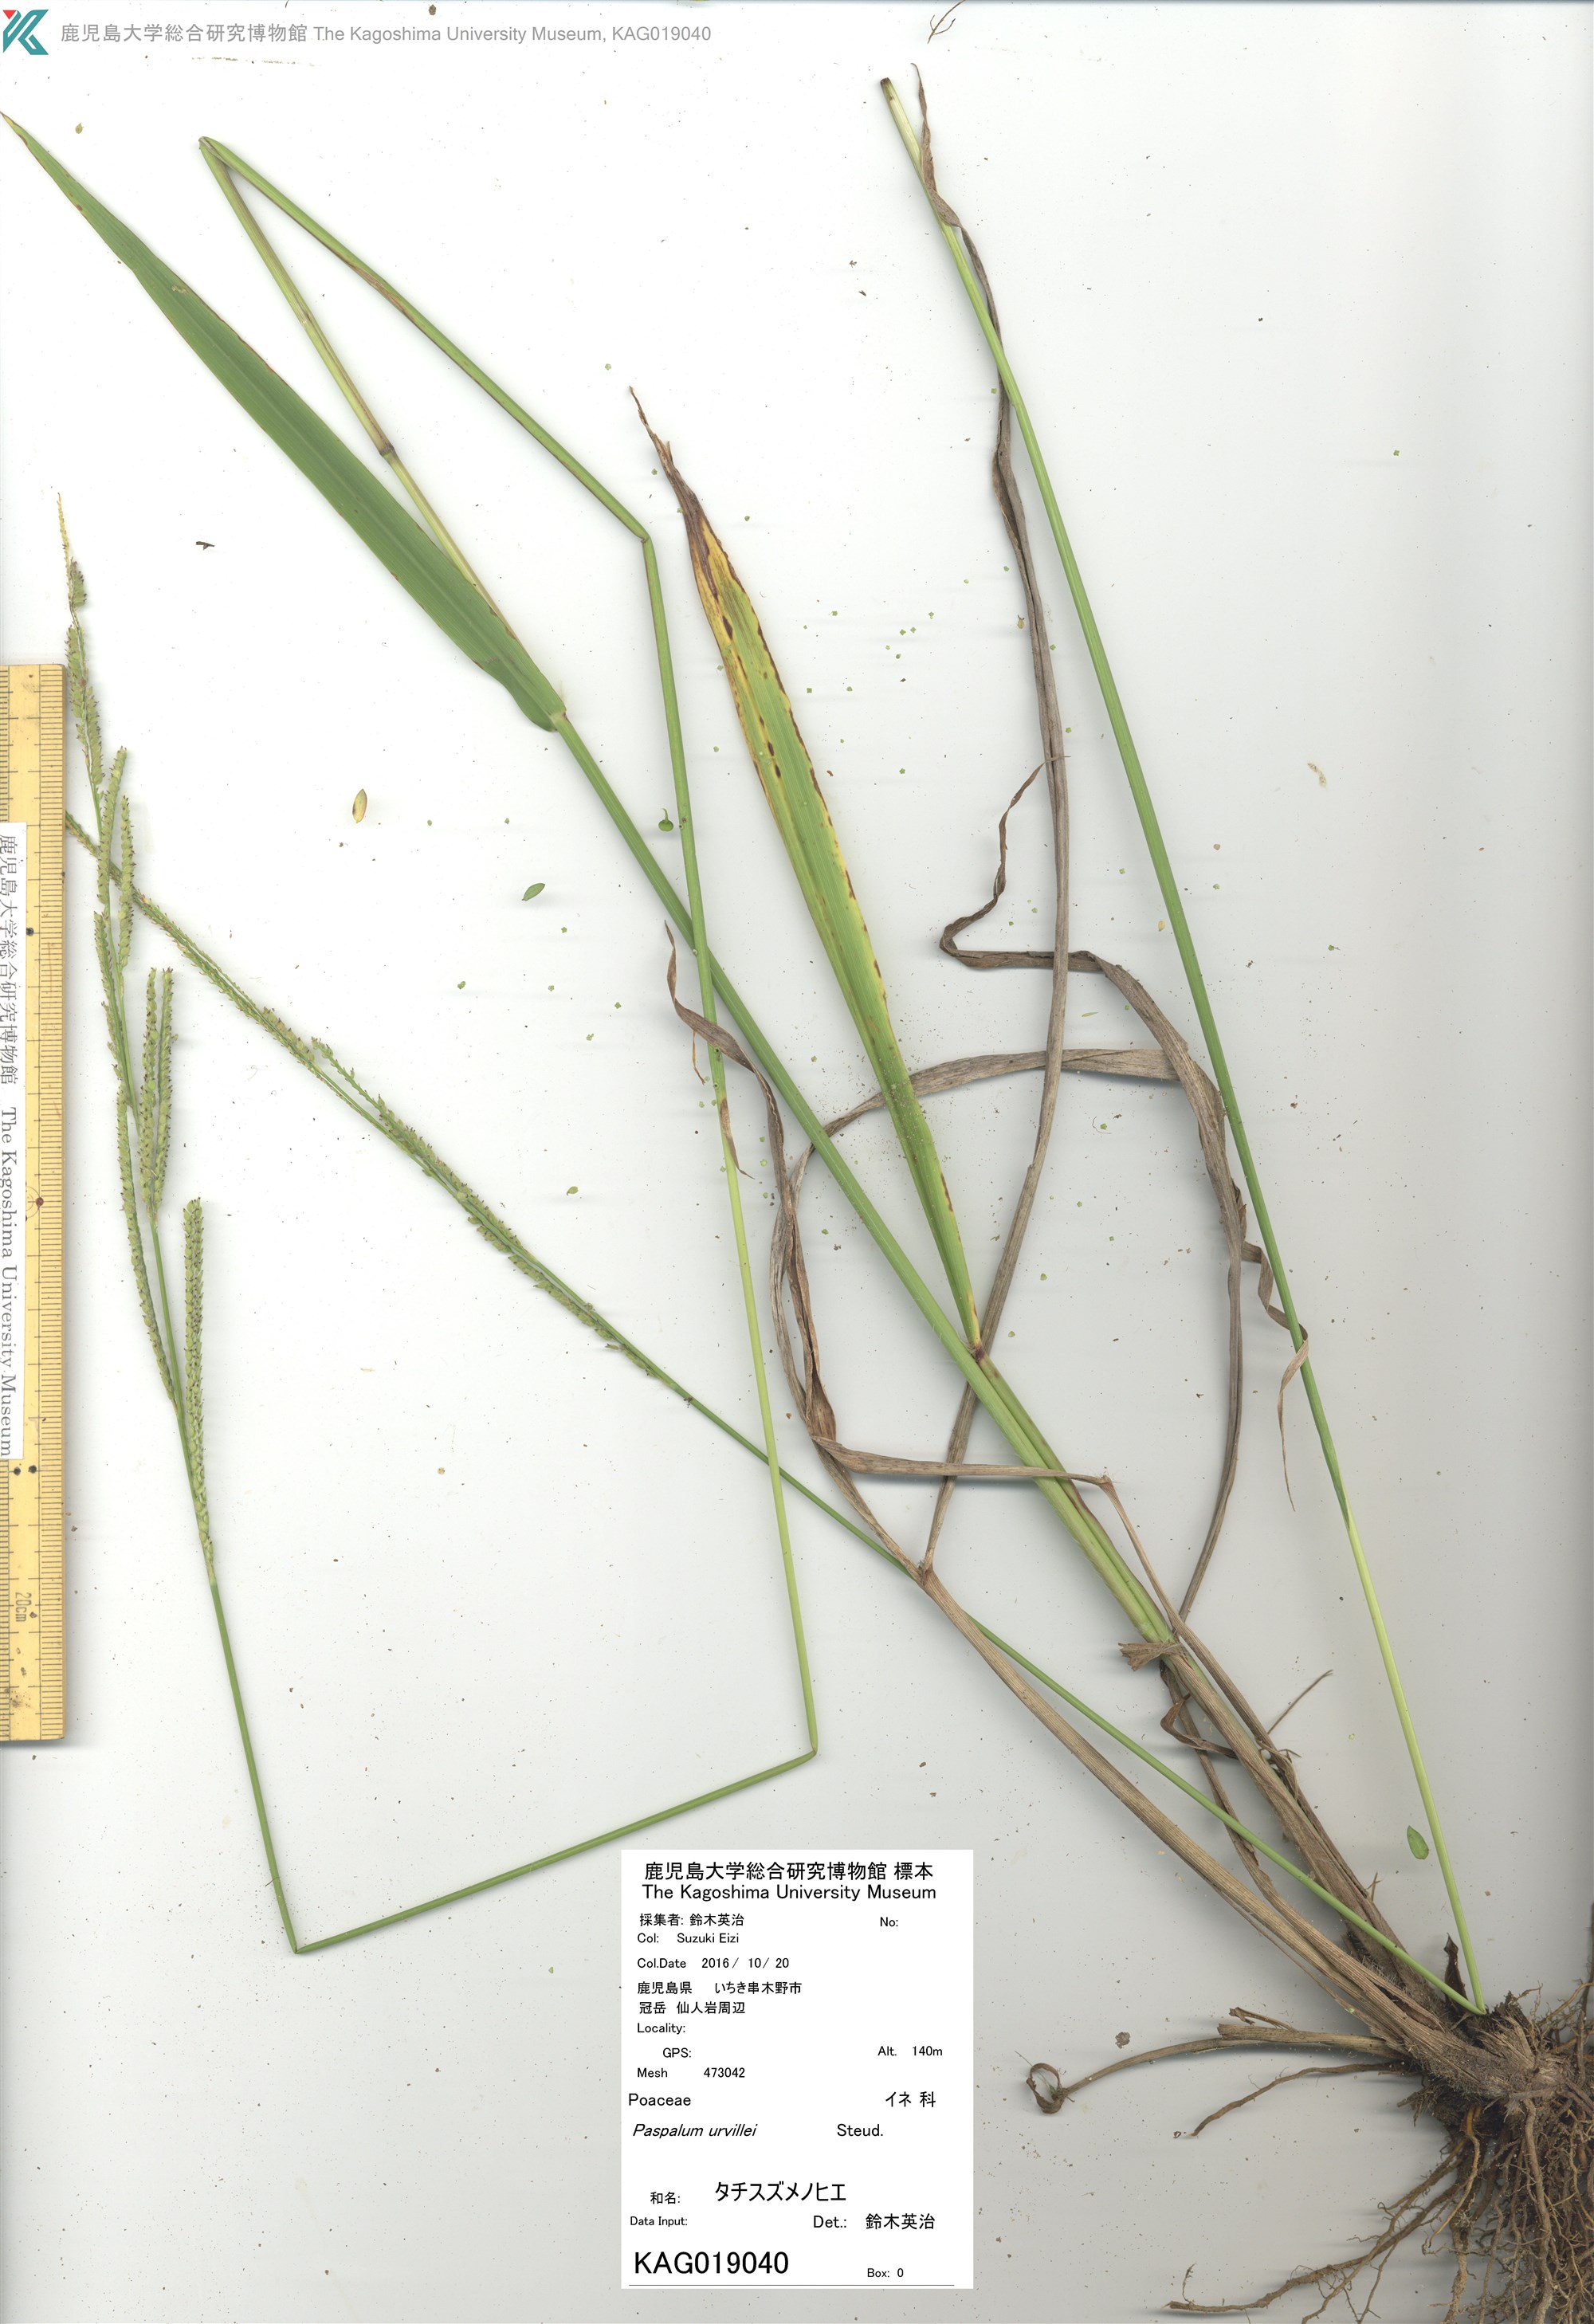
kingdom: Plantae
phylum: Tracheophyta
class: Liliopsida
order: Poales
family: Poaceae
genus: Paspalum
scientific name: Paspalum urvillei
